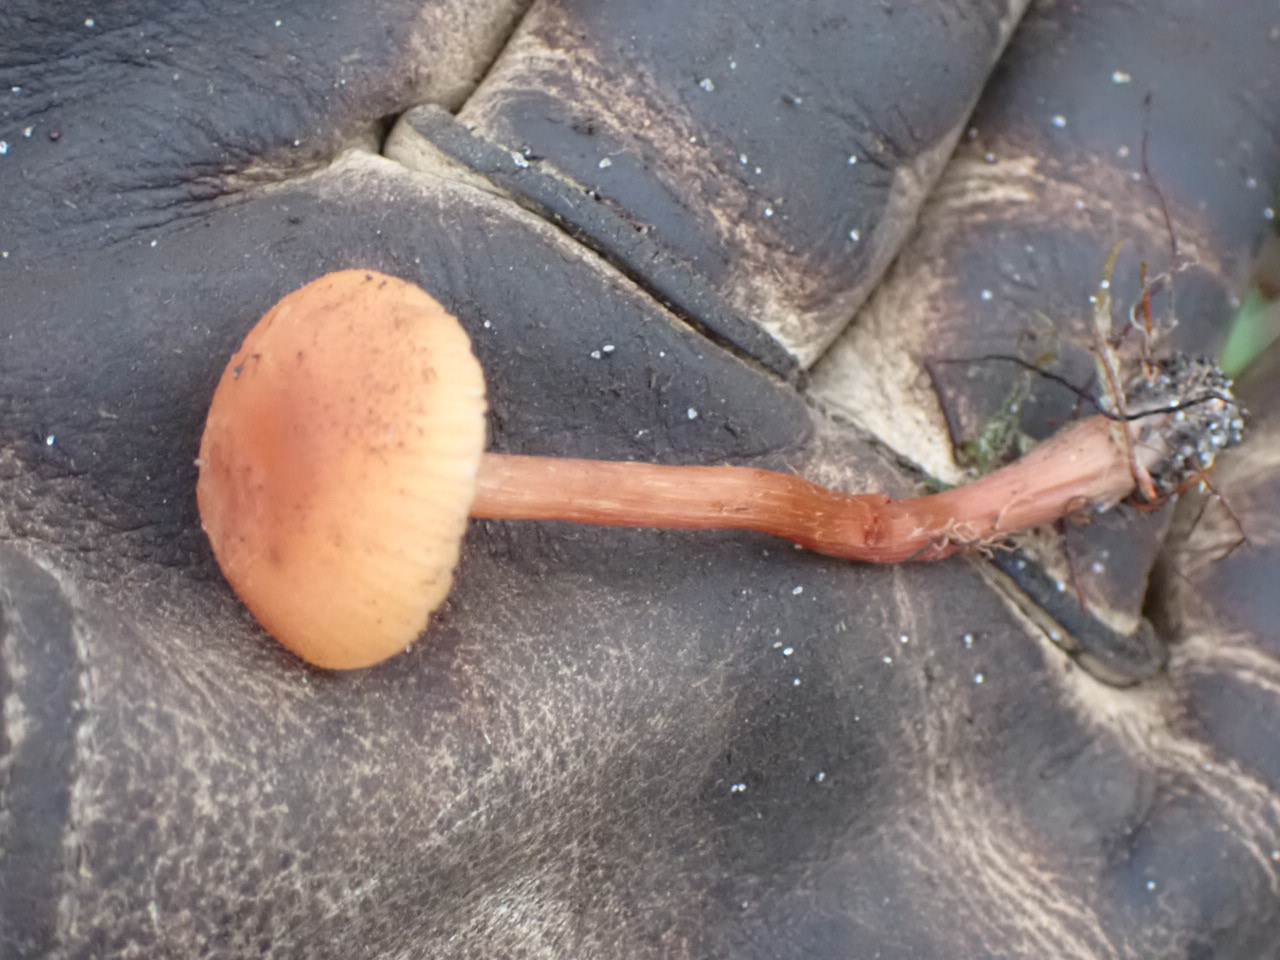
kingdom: Fungi
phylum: Basidiomycota
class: Agaricomycetes
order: Agaricales
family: Hydnangiaceae
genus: Laccaria
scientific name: Laccaria laccata
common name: rød ametysthat
